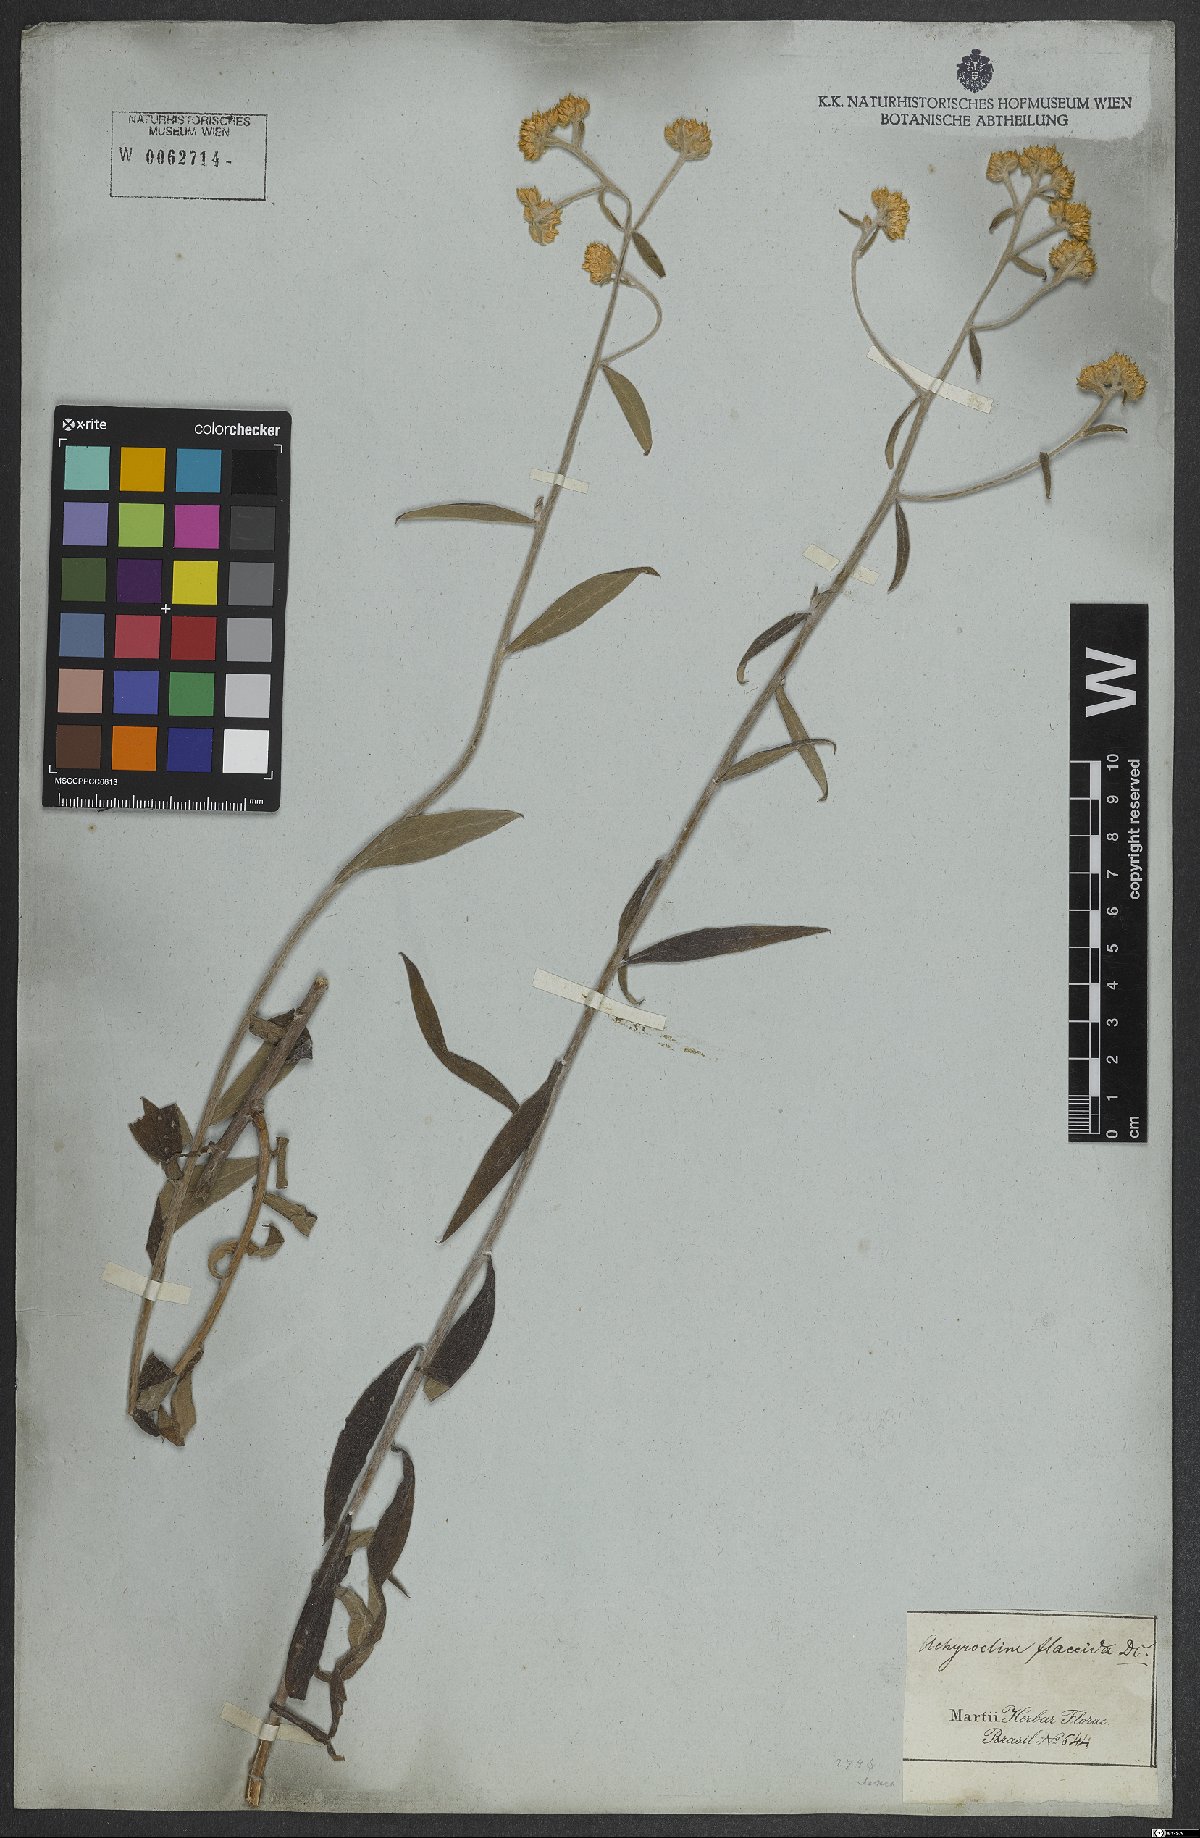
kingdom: Plantae
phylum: Tracheophyta
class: Magnoliopsida
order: Asterales
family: Asteraceae
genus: Achyrocline
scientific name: Achyrocline flaccida
